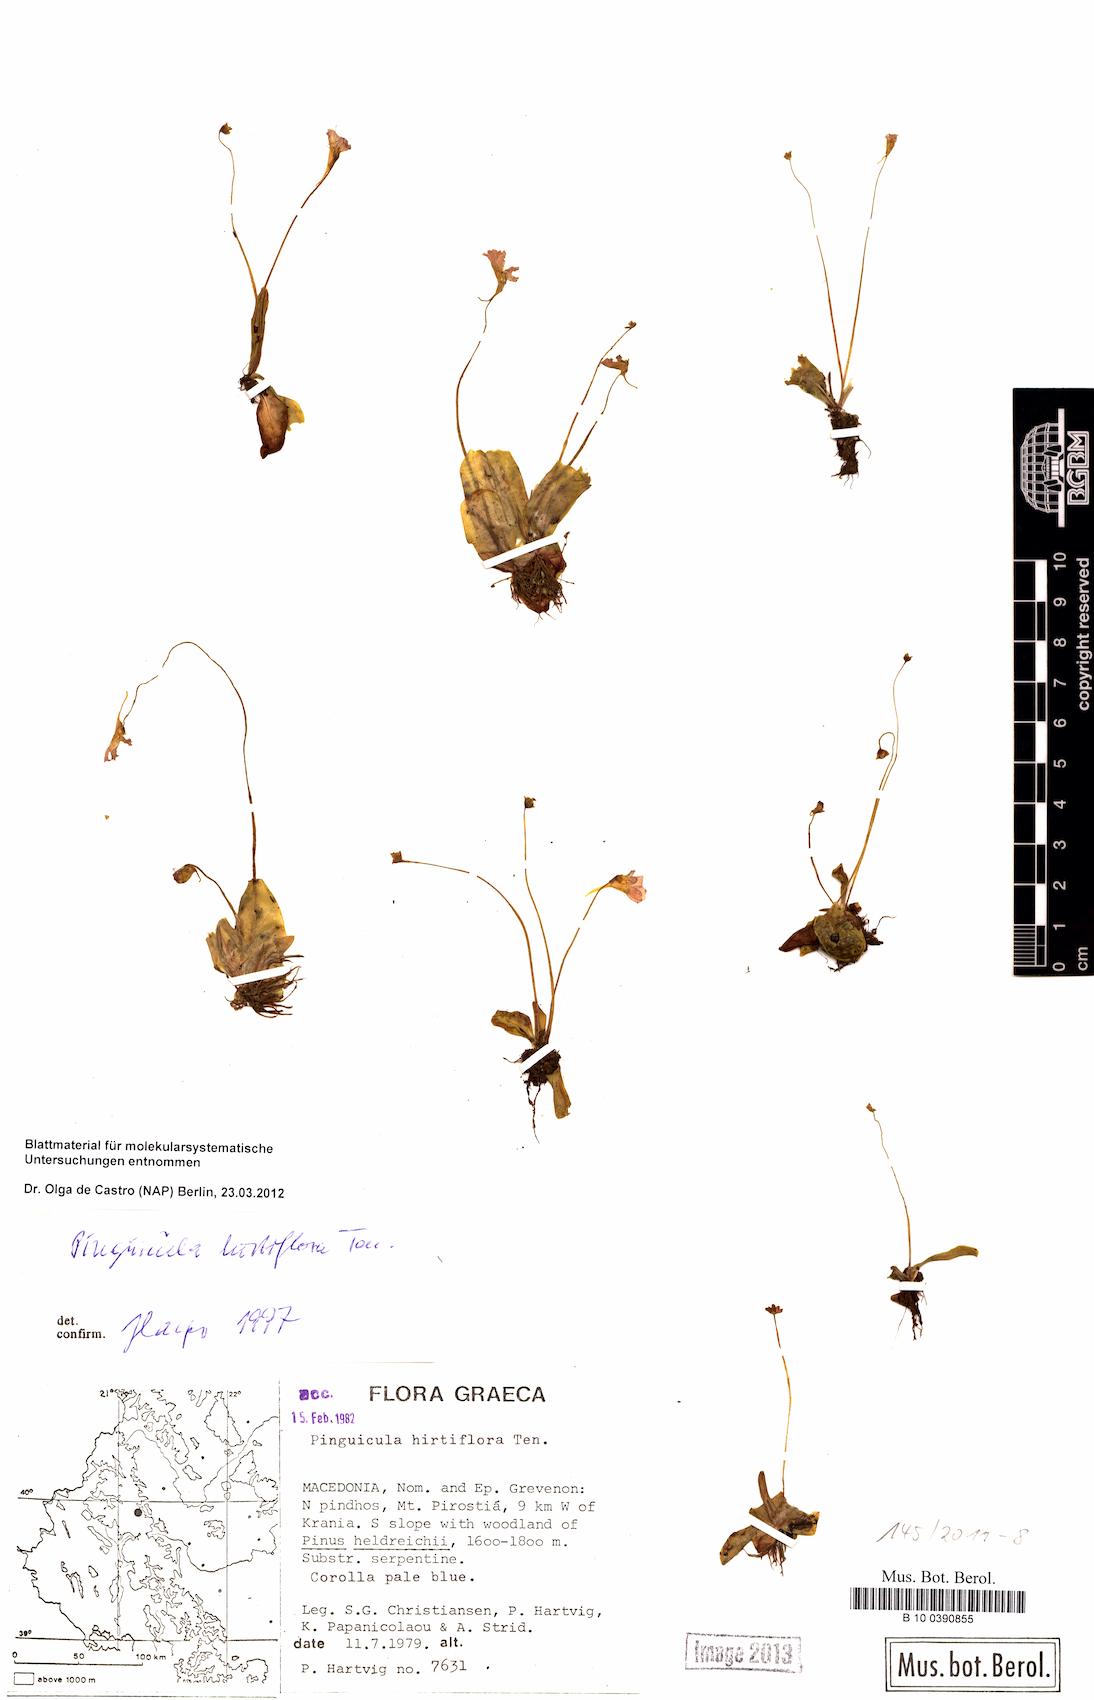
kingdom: Plantae
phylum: Tracheophyta
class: Magnoliopsida
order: Lamiales
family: Lentibulariaceae
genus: Pinguicula
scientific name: Pinguicula crystallina
